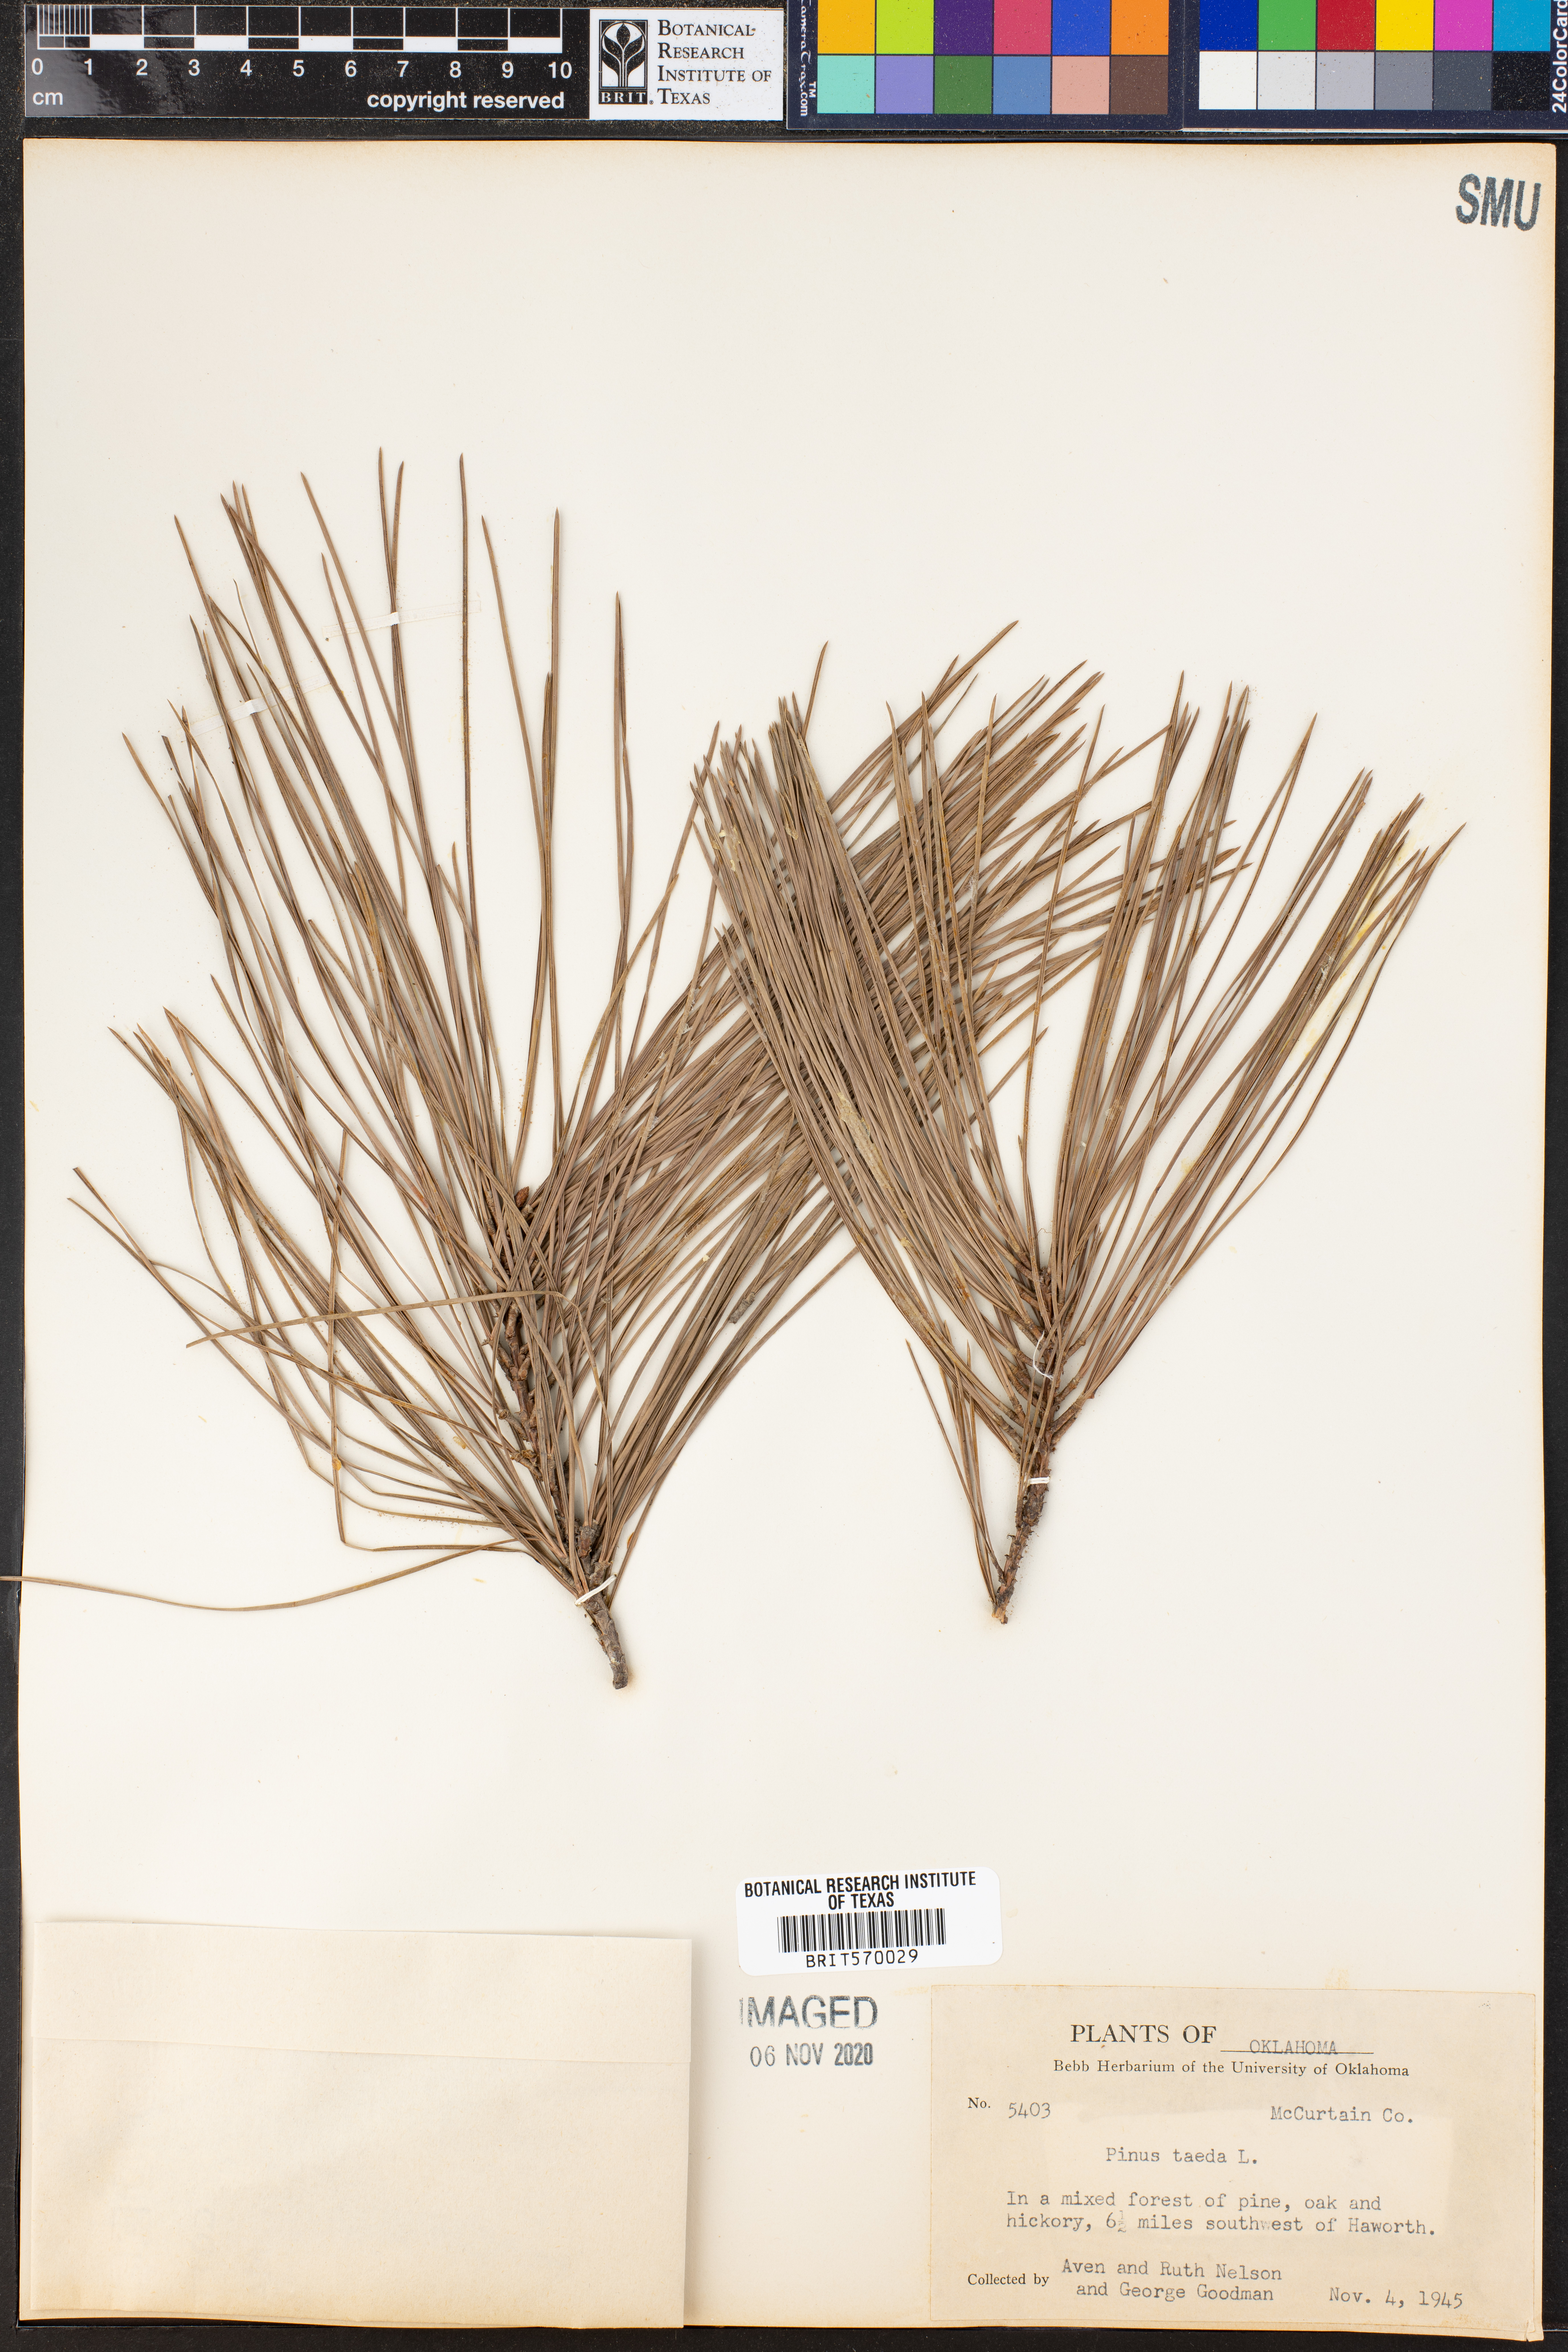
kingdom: Plantae
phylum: Tracheophyta
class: Pinopsida
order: Pinales
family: Pinaceae
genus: Pinus
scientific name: Pinus taeda
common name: Loblolly pine
